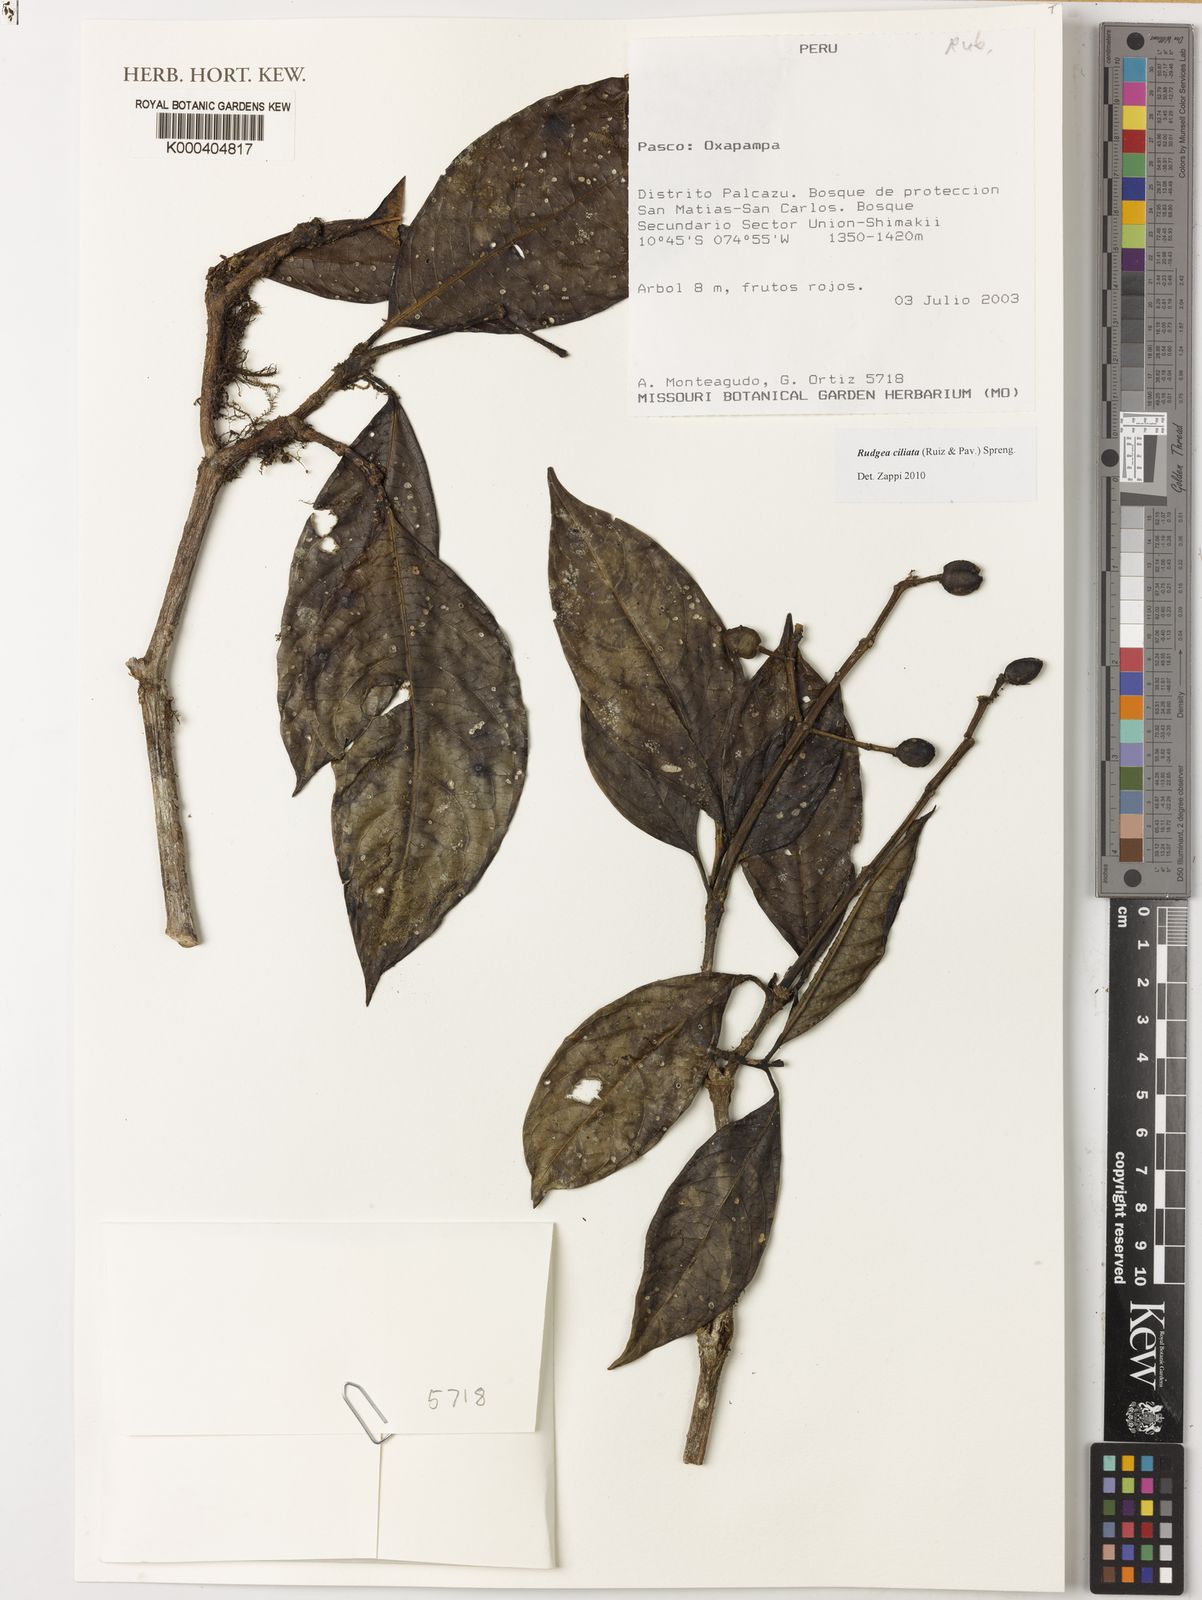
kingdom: Plantae
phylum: Tracheophyta
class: Magnoliopsida
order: Gentianales
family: Rubiaceae
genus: Rudgea
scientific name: Rudgea ciliata
